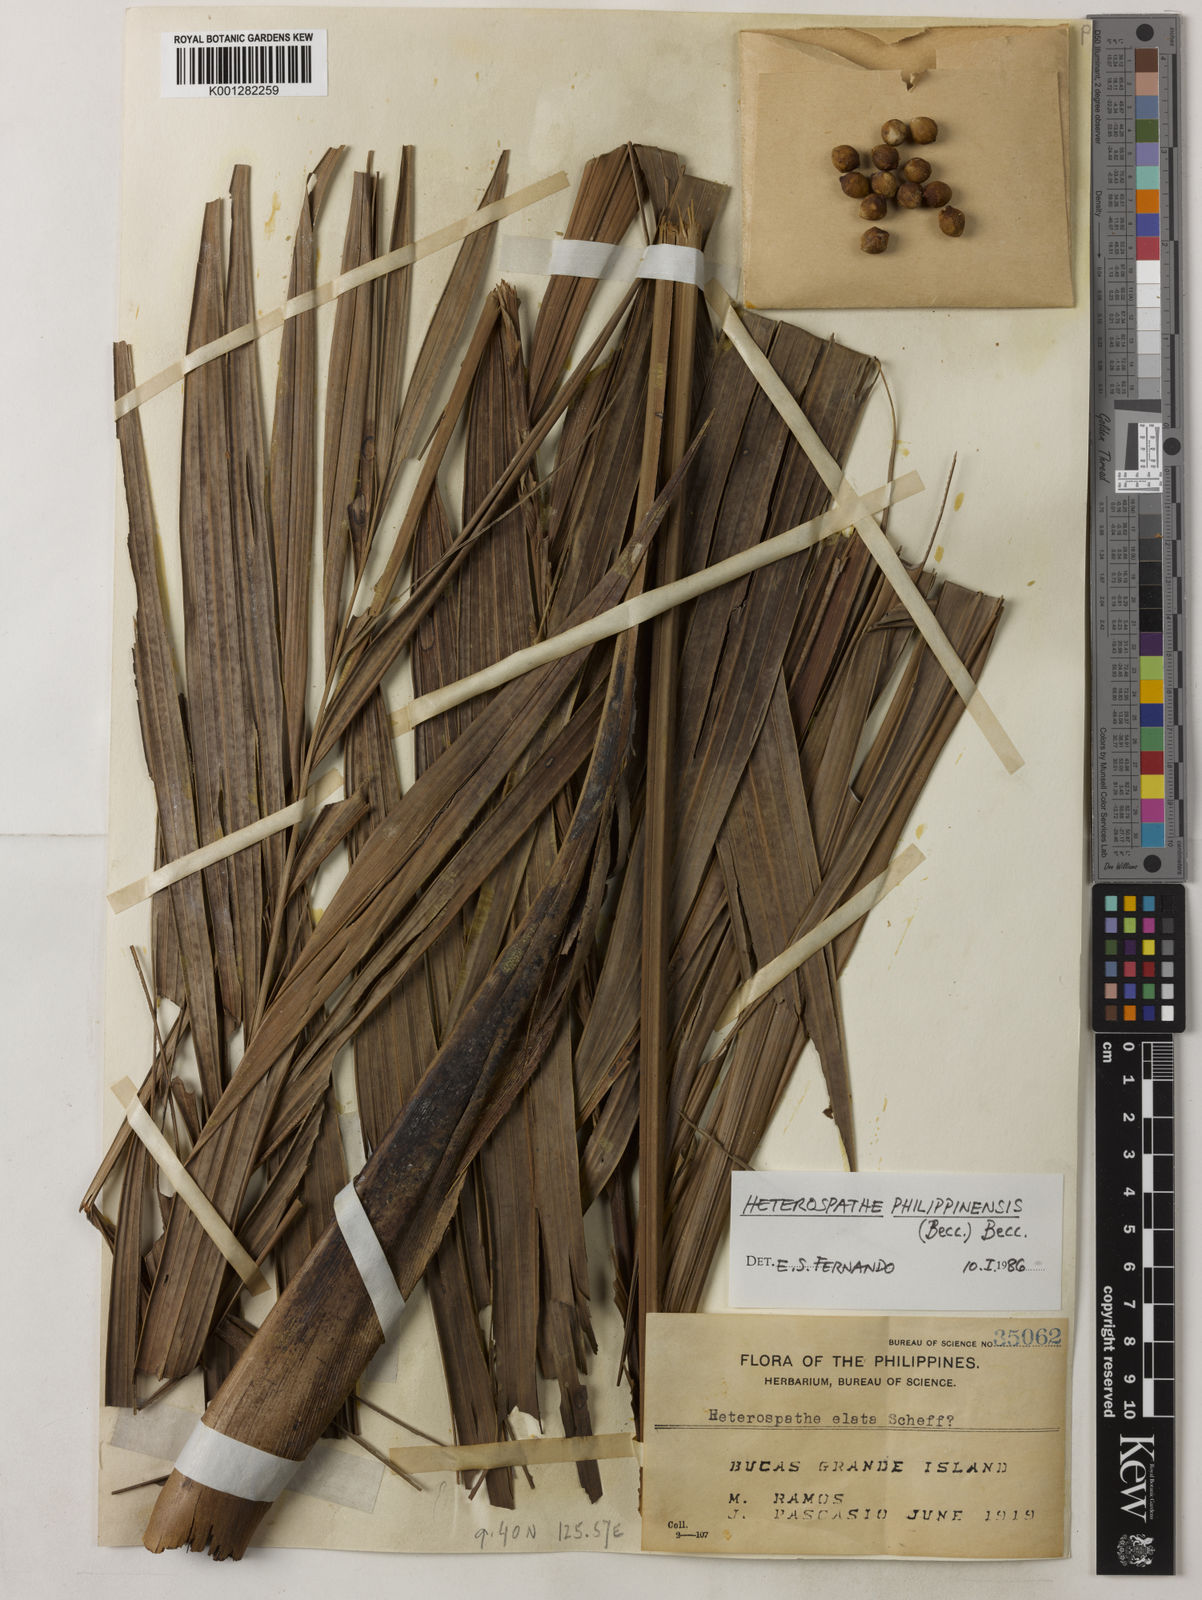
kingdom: Plantae
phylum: Tracheophyta
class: Liliopsida
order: Arecales
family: Arecaceae
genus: Heterospathe
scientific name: Heterospathe philippinensis
